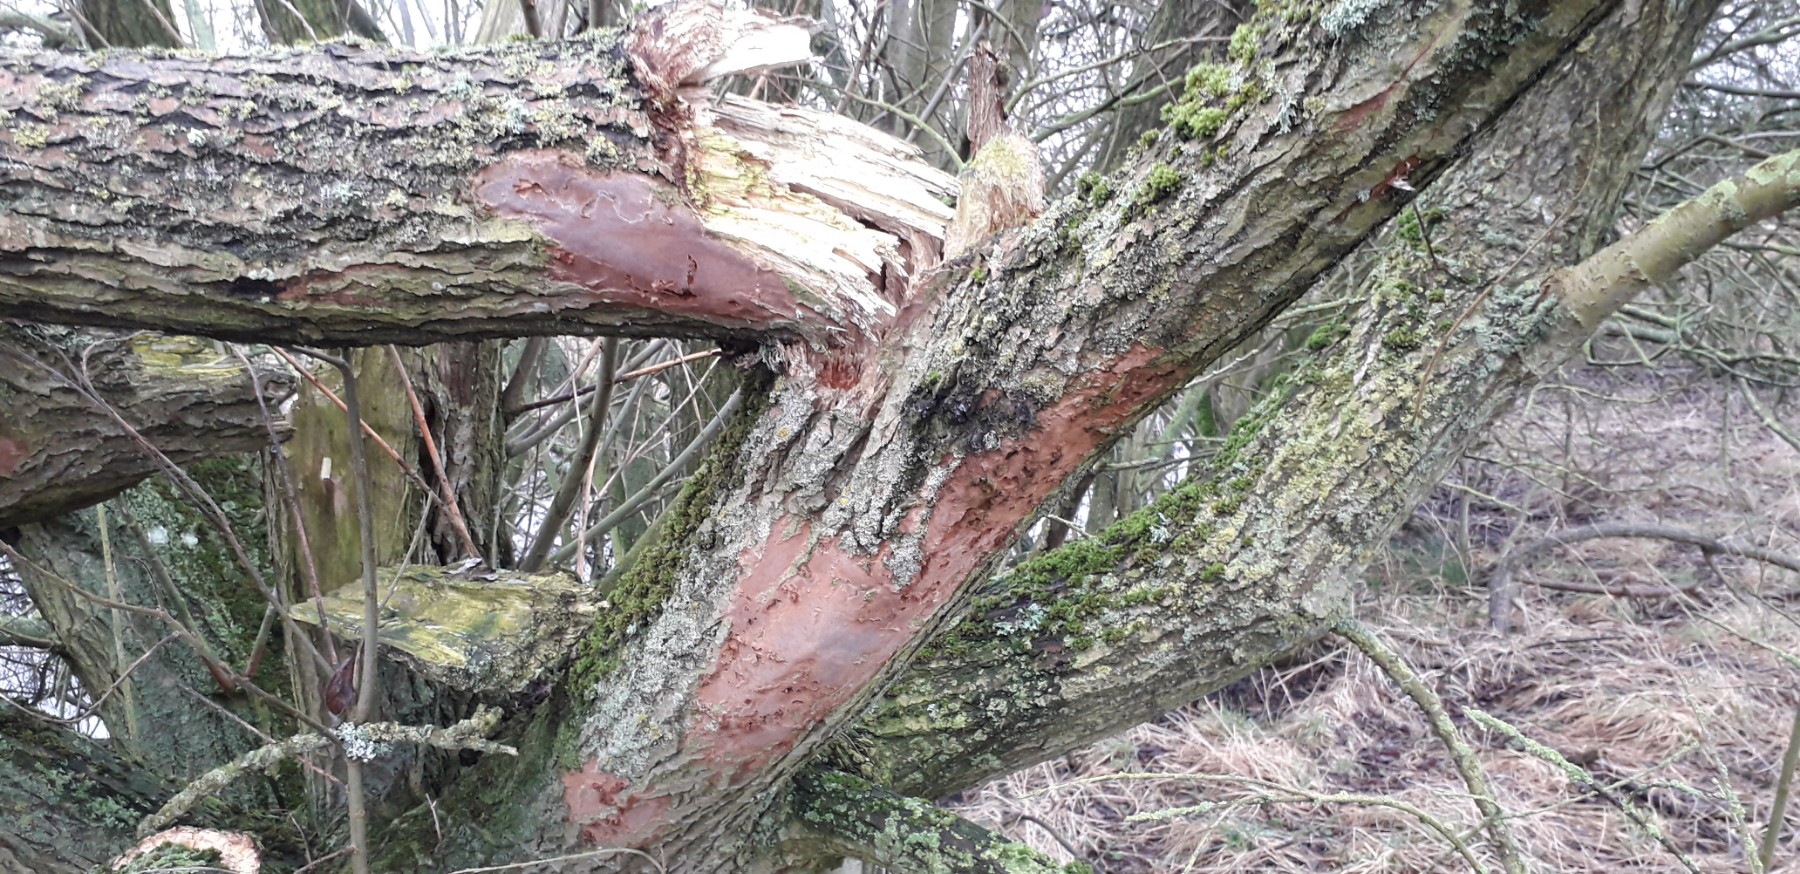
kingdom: Fungi
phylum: Basidiomycota
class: Agaricomycetes
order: Hymenochaetales
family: Hymenochaetaceae
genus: Fomitiporia
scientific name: Fomitiporia punctata
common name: pude-ildporesvamp
